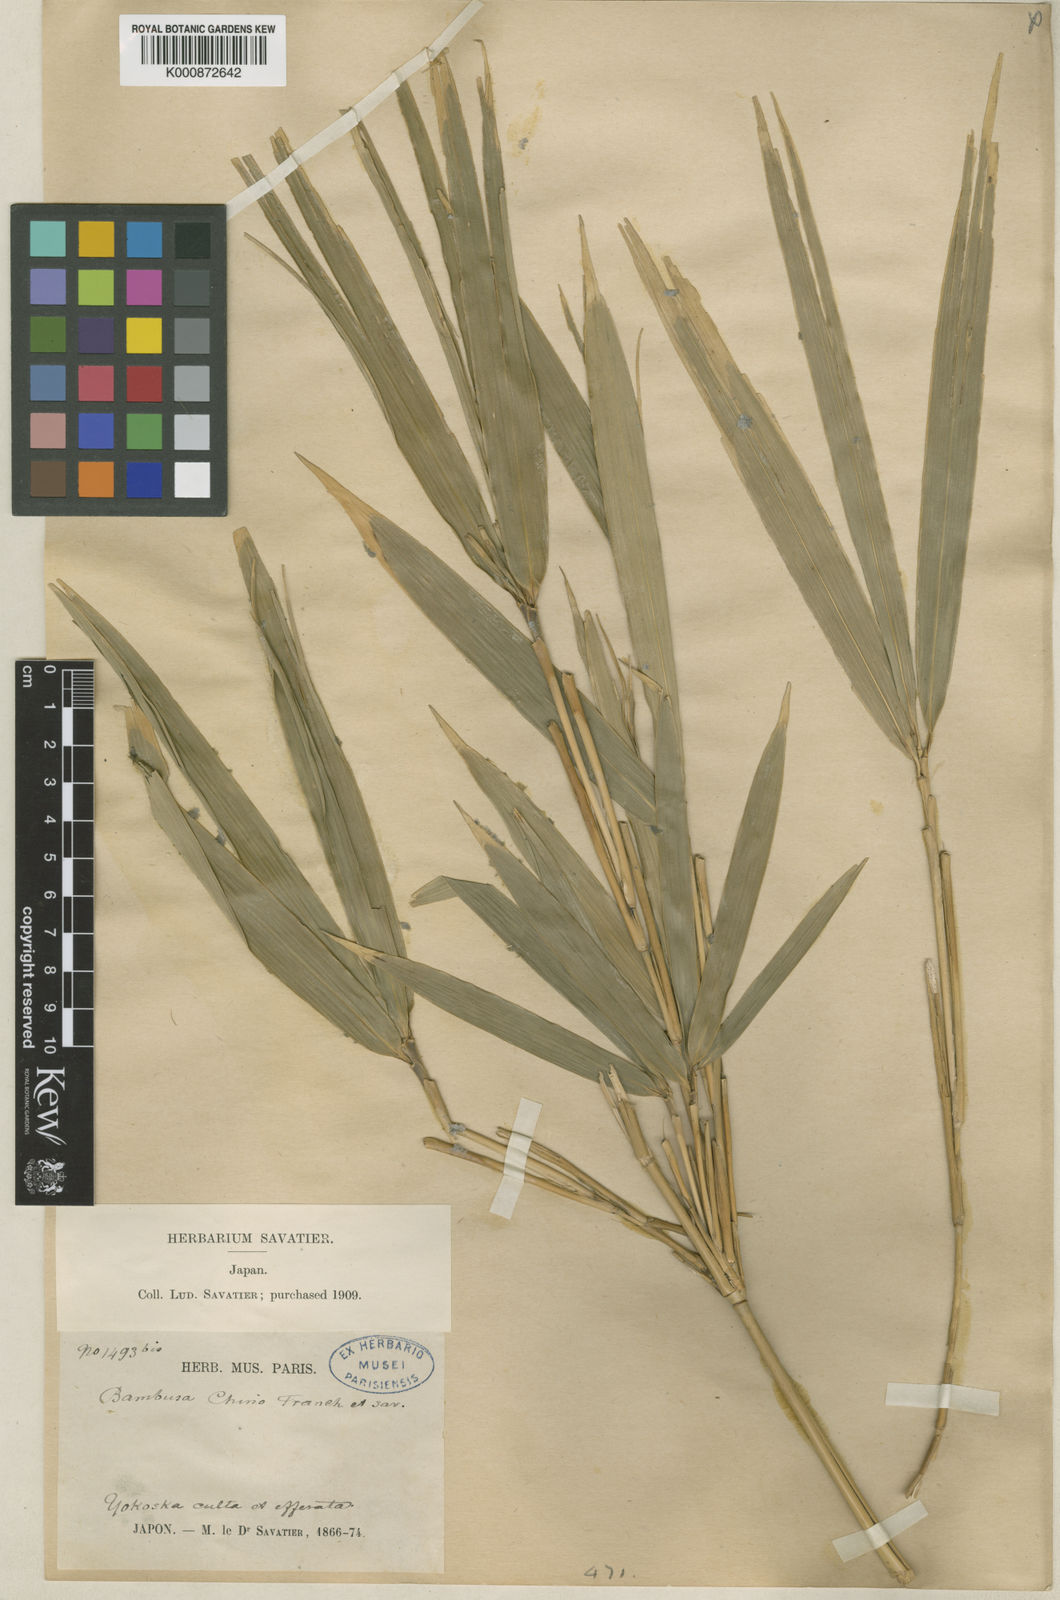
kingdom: Plantae
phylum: Tracheophyta
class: Liliopsida
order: Poales
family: Poaceae
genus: Pleioblastus
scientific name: Pleioblastus argenteostriatus
